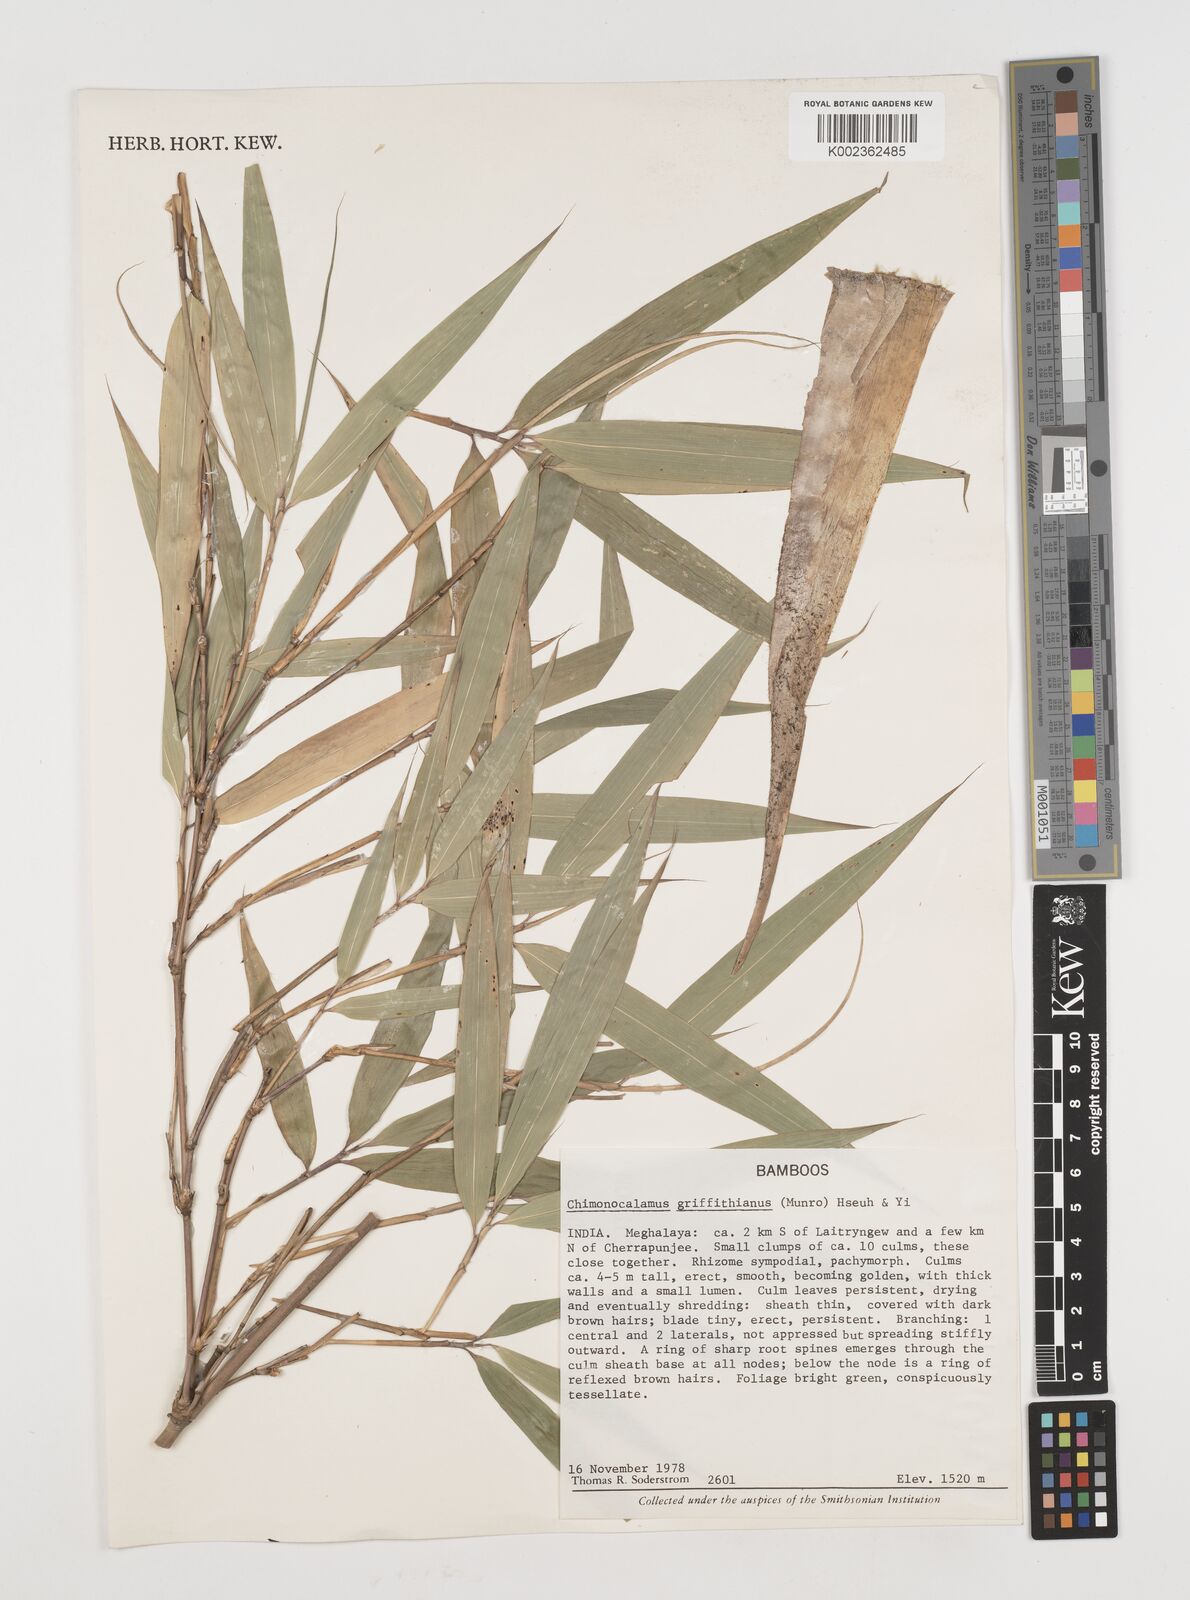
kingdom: Plantae
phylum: Tracheophyta
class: Liliopsida
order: Poales
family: Poaceae
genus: Chimonocalamus
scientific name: Chimonocalamus griffithianus
